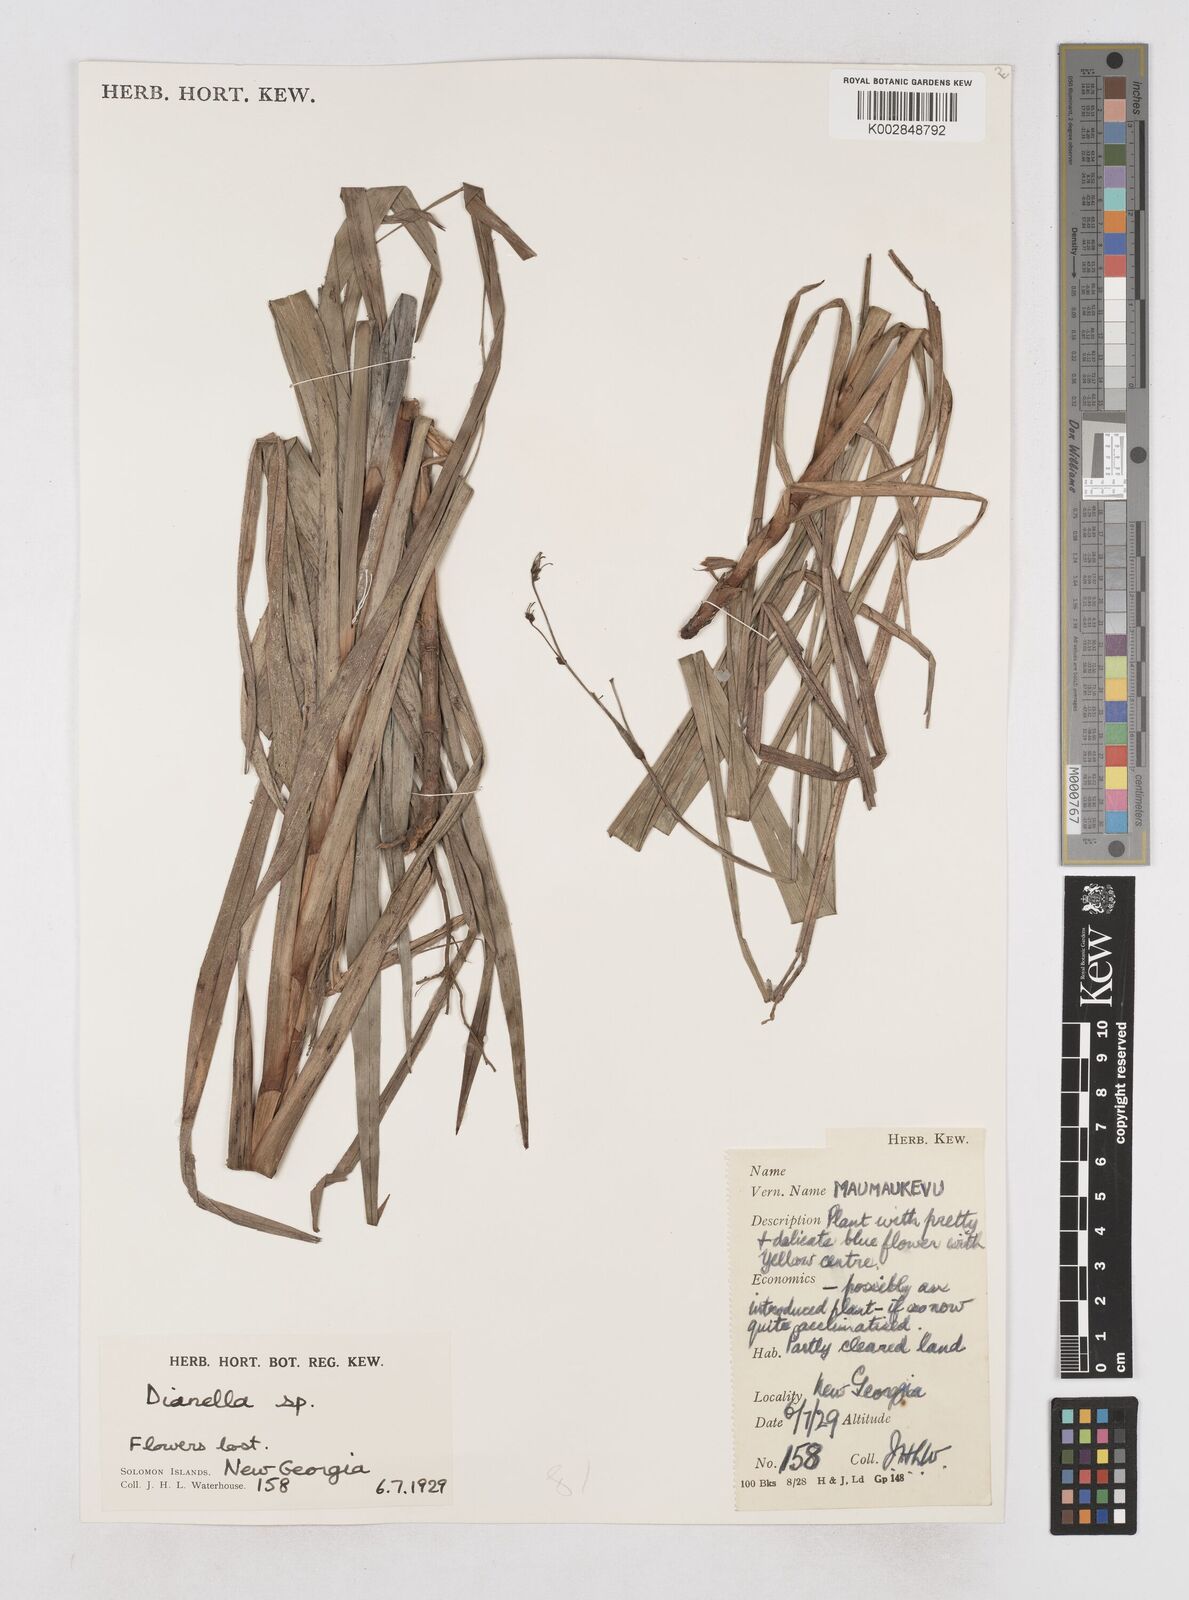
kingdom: Plantae
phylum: Tracheophyta
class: Liliopsida
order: Asparagales
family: Asphodelaceae
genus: Dianella
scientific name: Dianella
